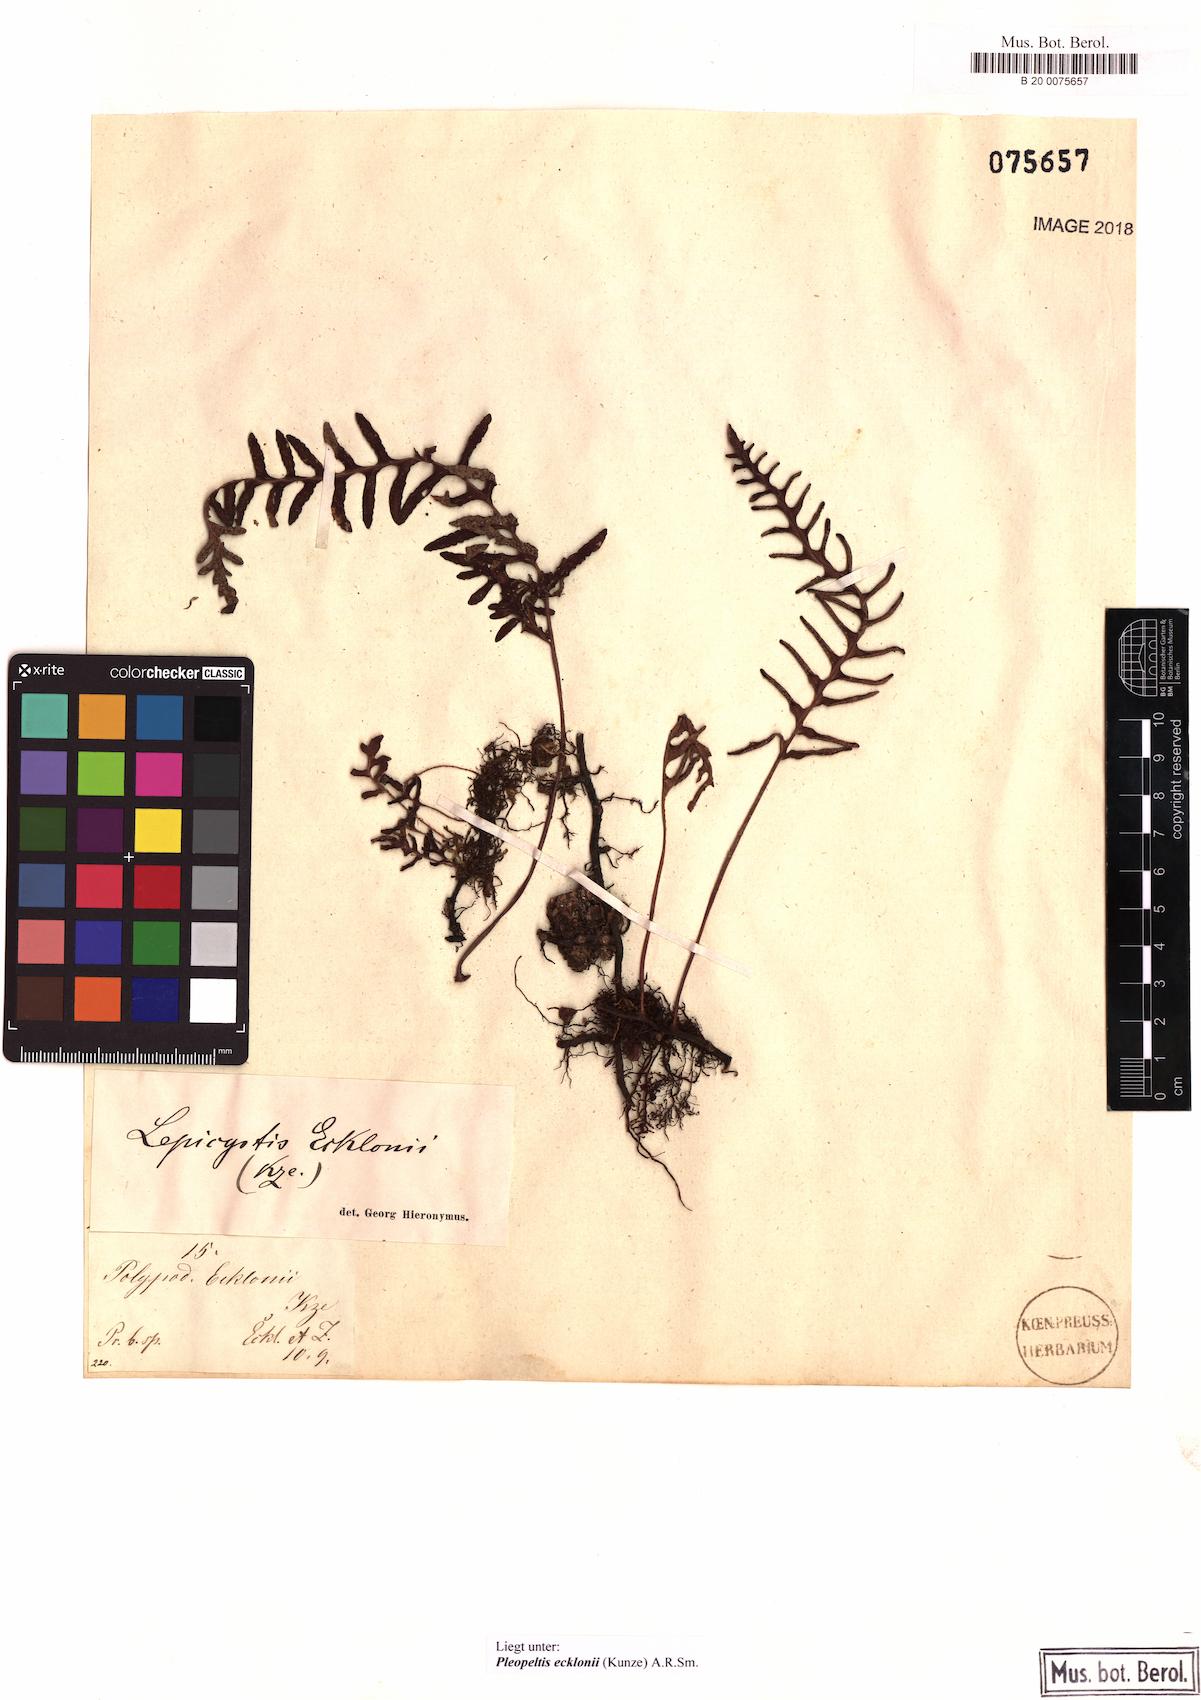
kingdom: Plantae
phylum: Tracheophyta
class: Polypodiopsida
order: Polypodiales
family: Polypodiaceae
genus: Pleopeltis
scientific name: Pleopeltis ecklonii
